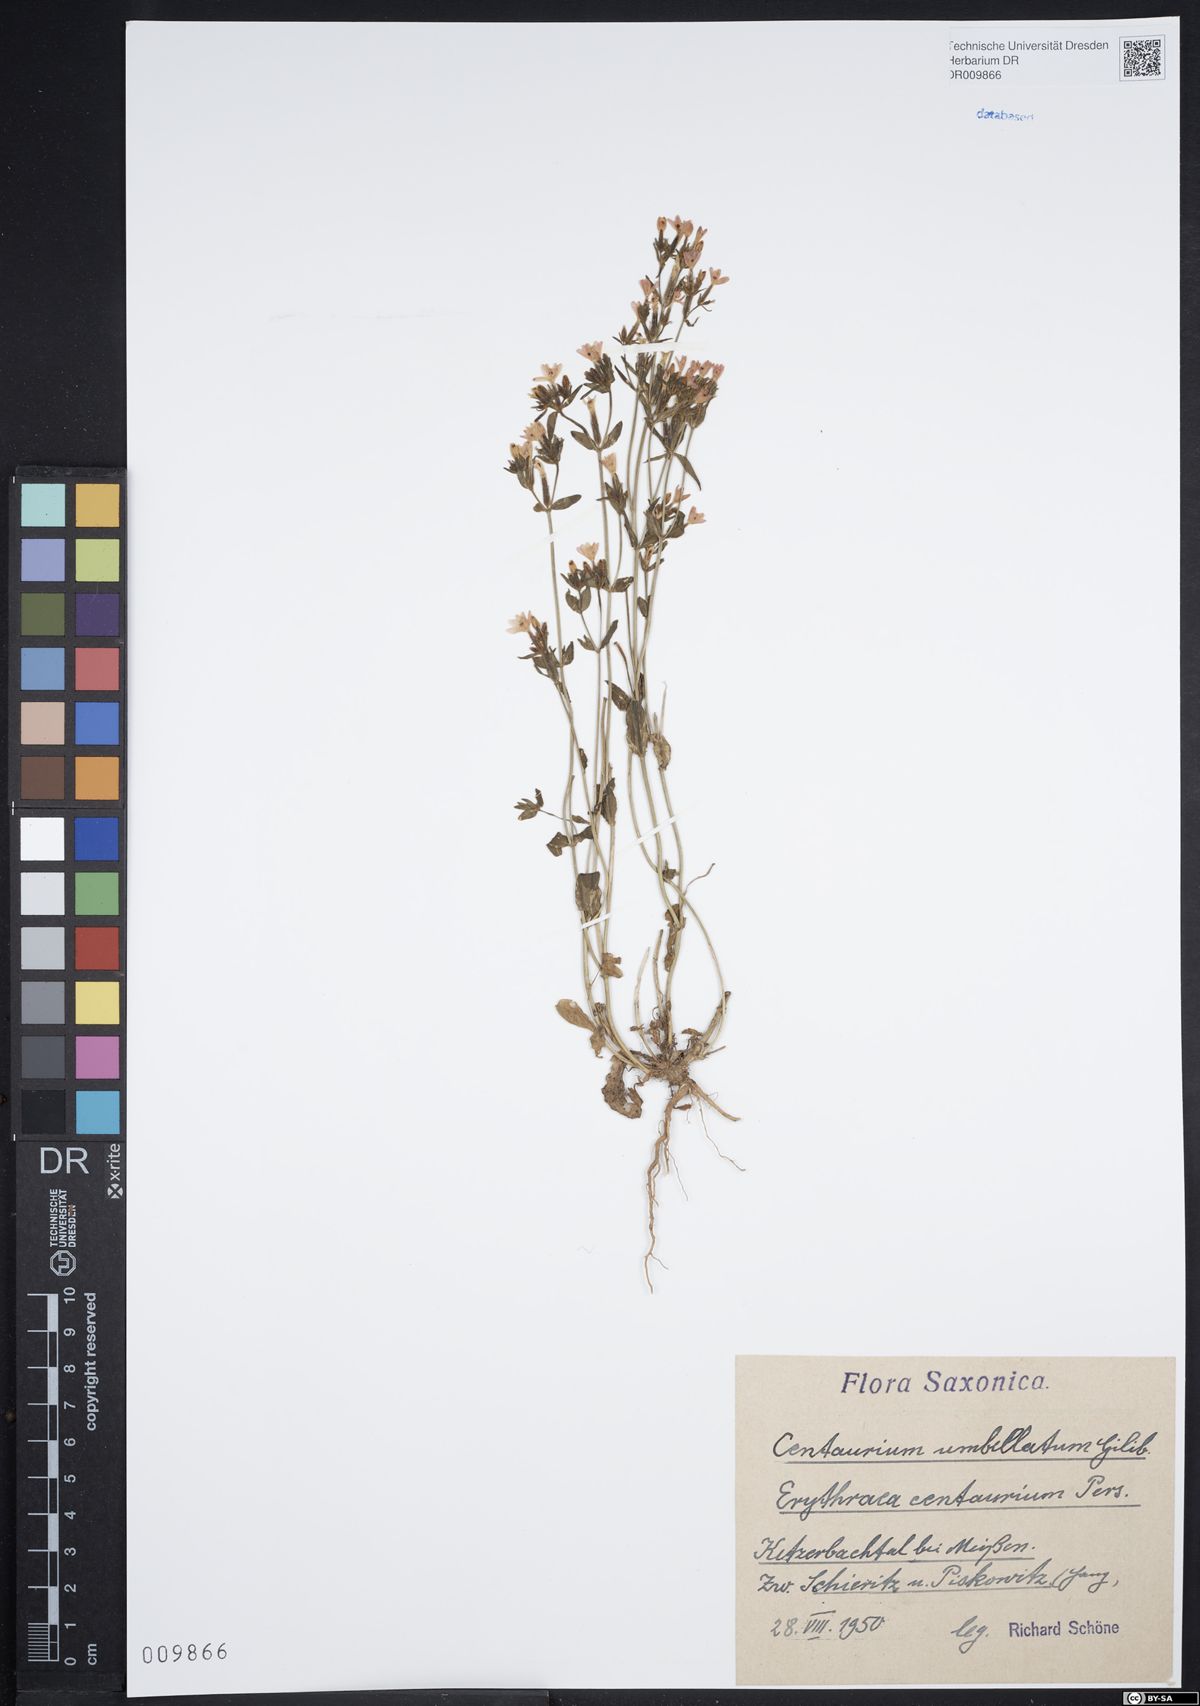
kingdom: Plantae
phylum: Tracheophyta
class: Magnoliopsida
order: Gentianales
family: Gentianaceae
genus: Centaurium
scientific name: Centaurium erythraea
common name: Common centaury
